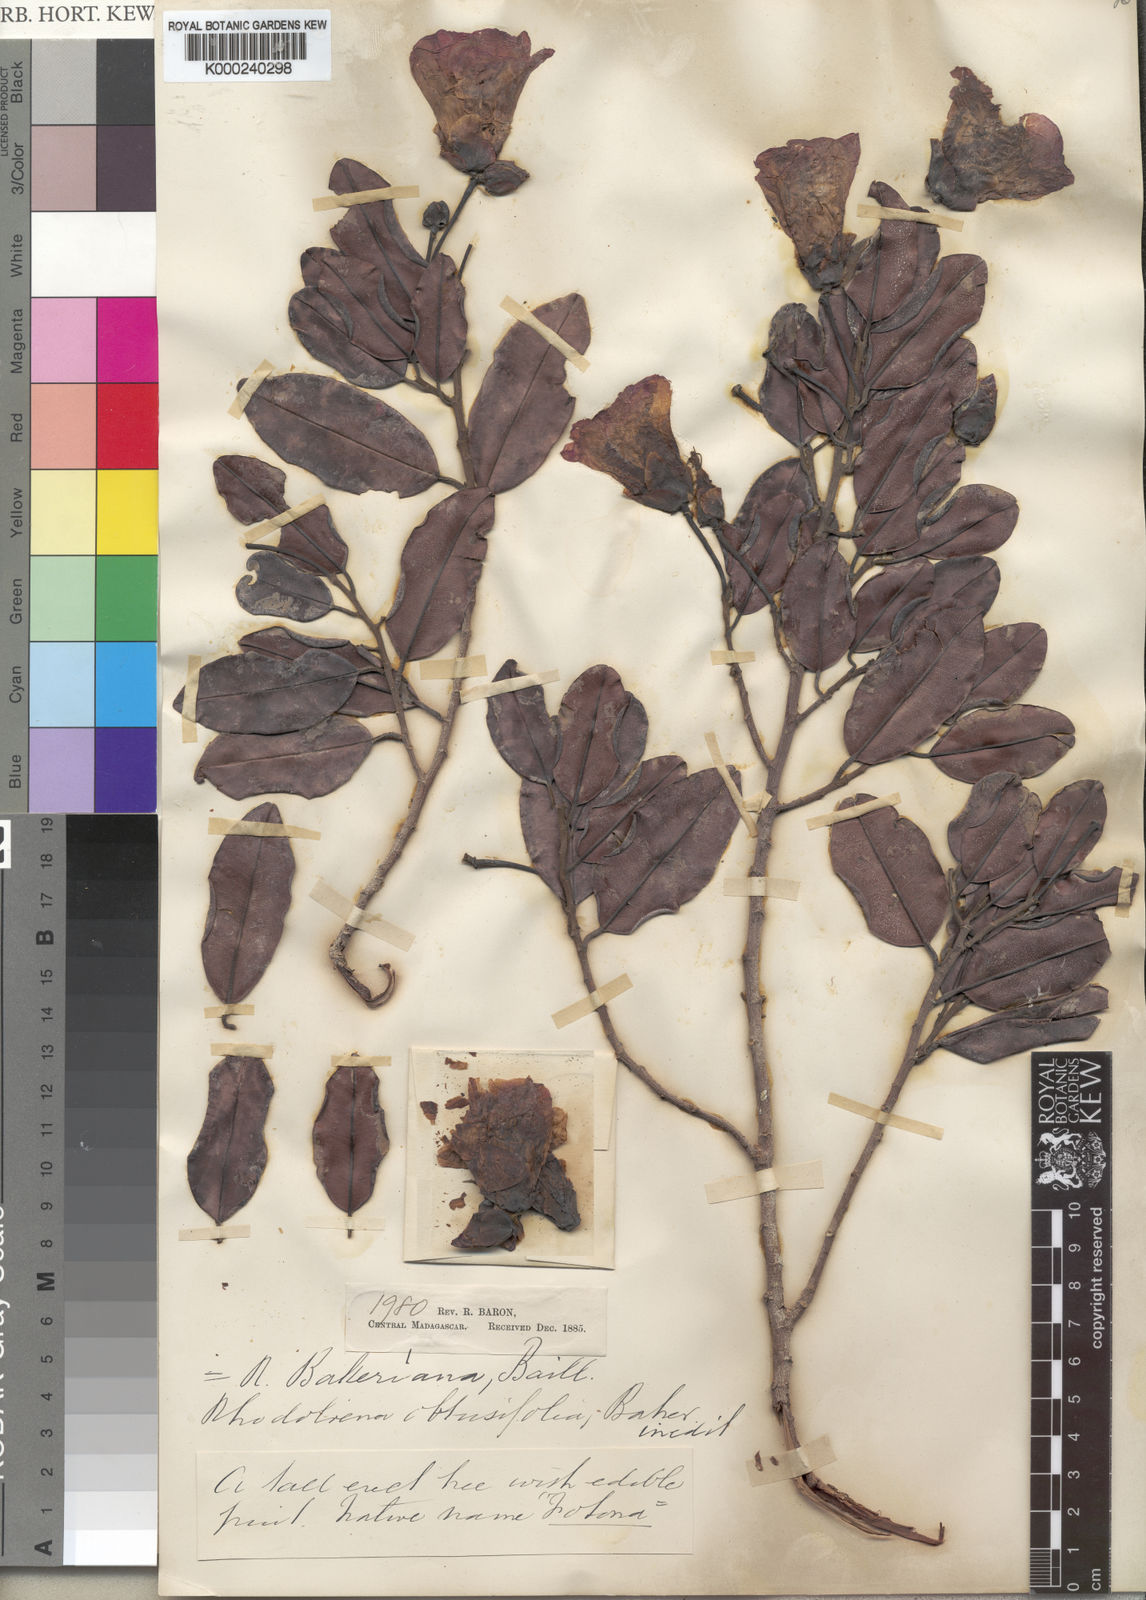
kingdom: Plantae
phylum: Tracheophyta
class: Magnoliopsida
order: Malvales
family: Sarcolaenaceae
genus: Rhodolaena
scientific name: Rhodolaena bakeriana
